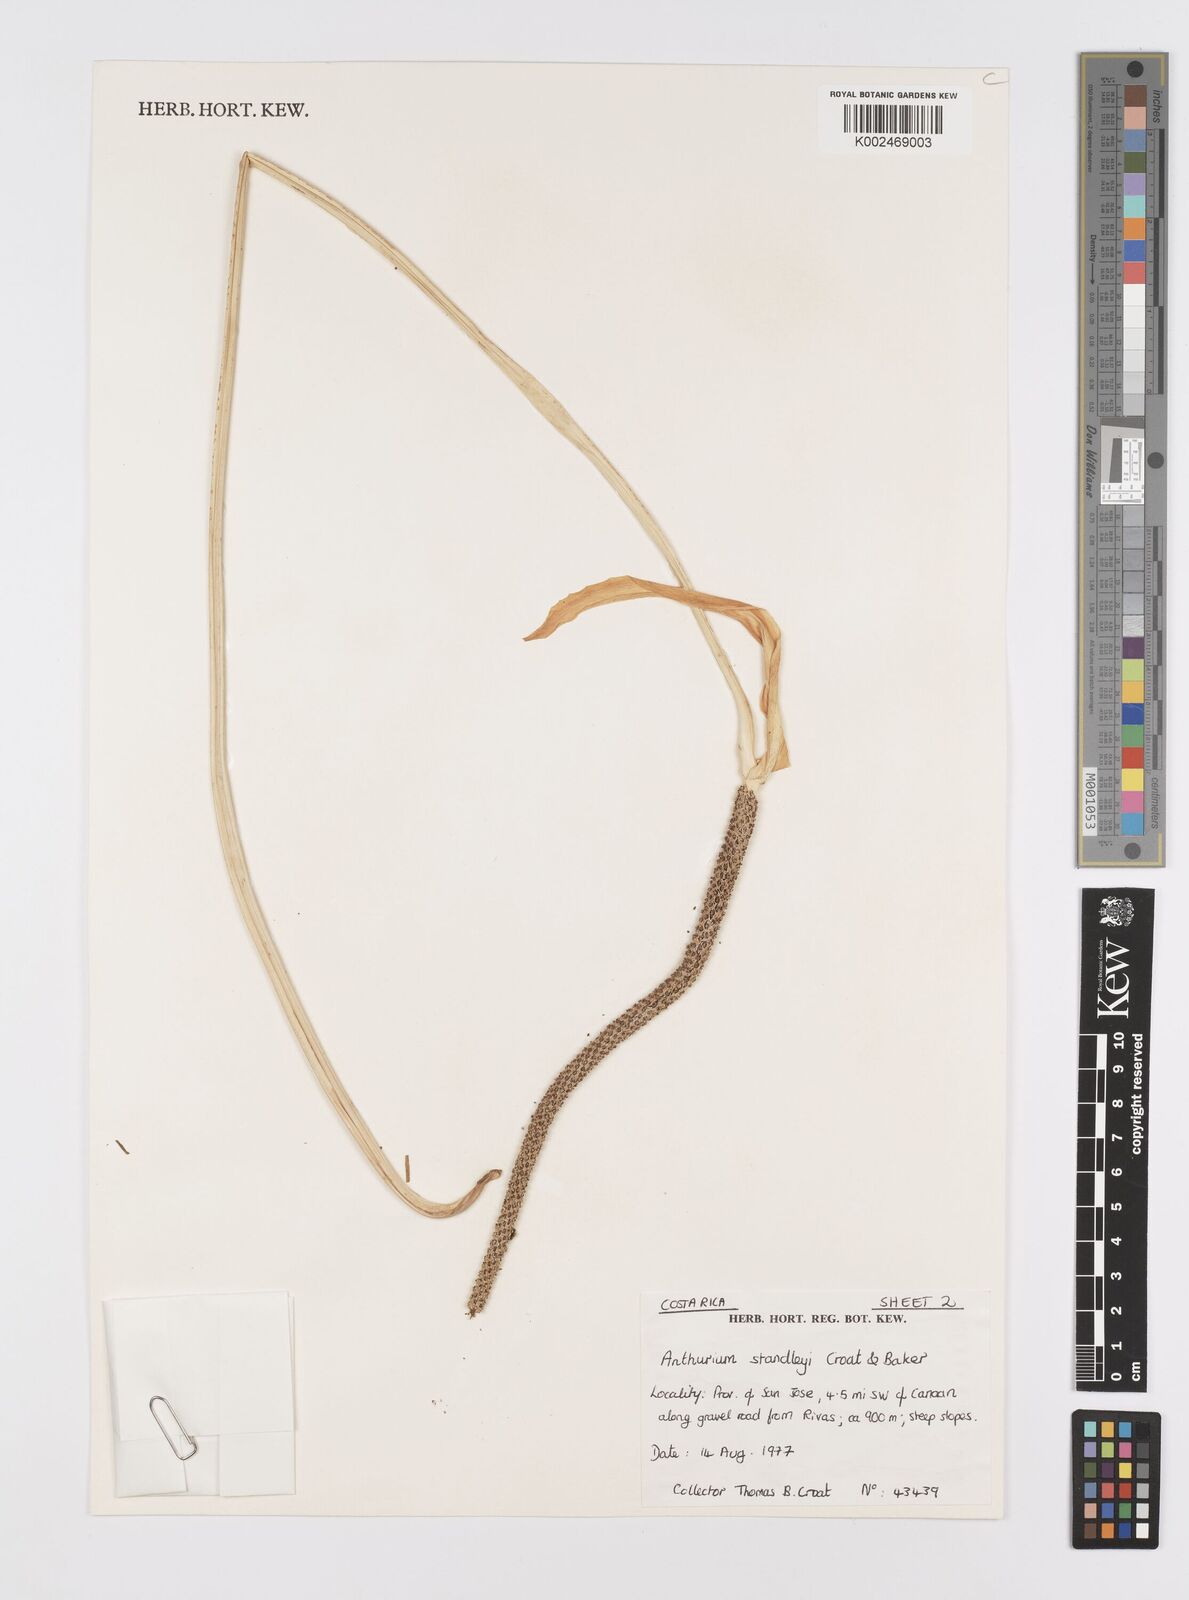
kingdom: Plantae
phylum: Tracheophyta
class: Liliopsida
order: Alismatales
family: Araceae
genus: Anthurium
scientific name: Anthurium standleyi
